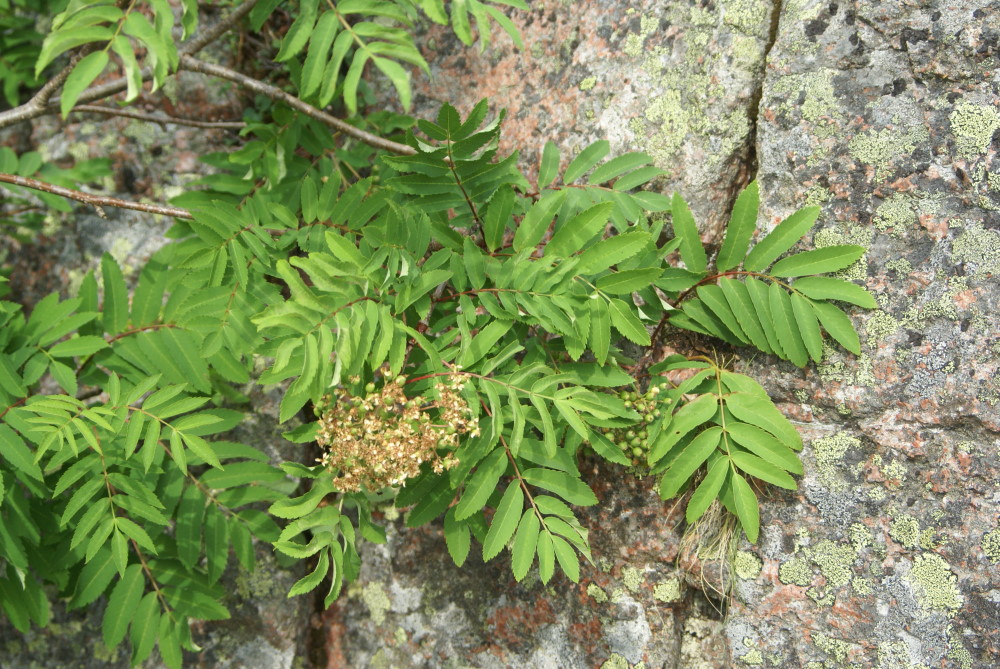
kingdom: Plantae
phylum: Tracheophyta
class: Magnoliopsida
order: Rosales
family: Rosaceae
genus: Sorbus
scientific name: Sorbus aucuparia
